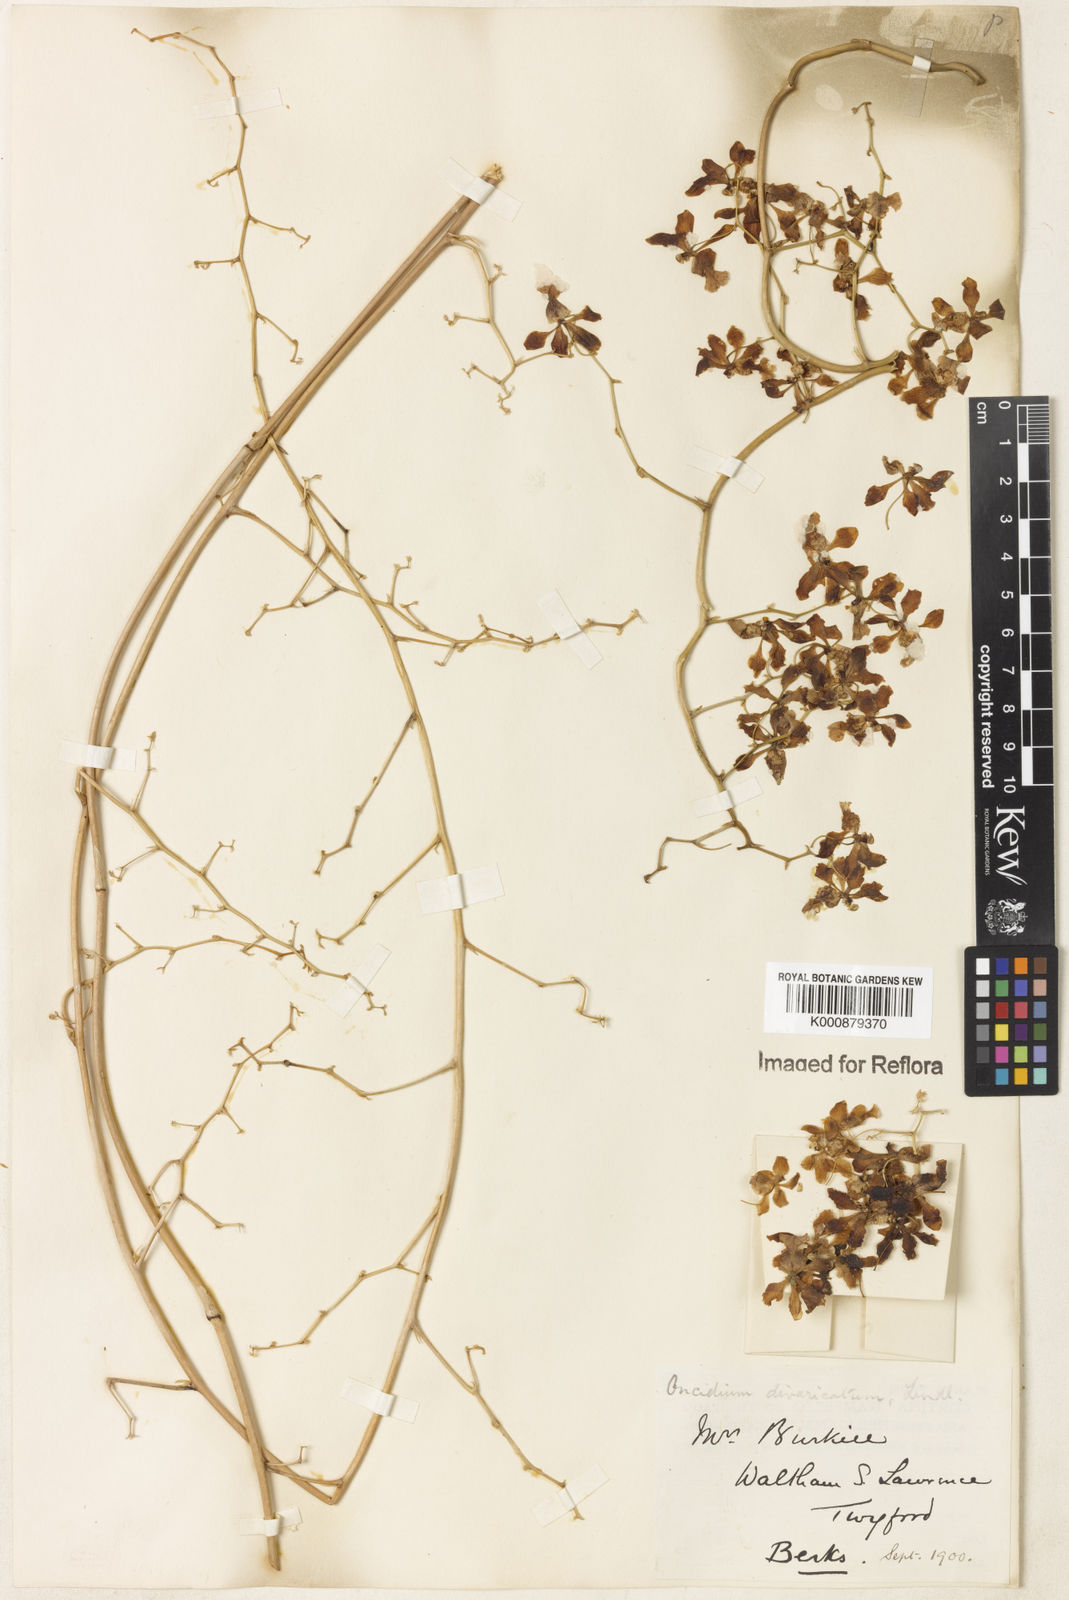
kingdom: Plantae
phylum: Tracheophyta
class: Liliopsida
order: Asparagales
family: Orchidaceae
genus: Grandiphyllum
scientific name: Grandiphyllum divaricatum
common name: Mule-ear orchid
